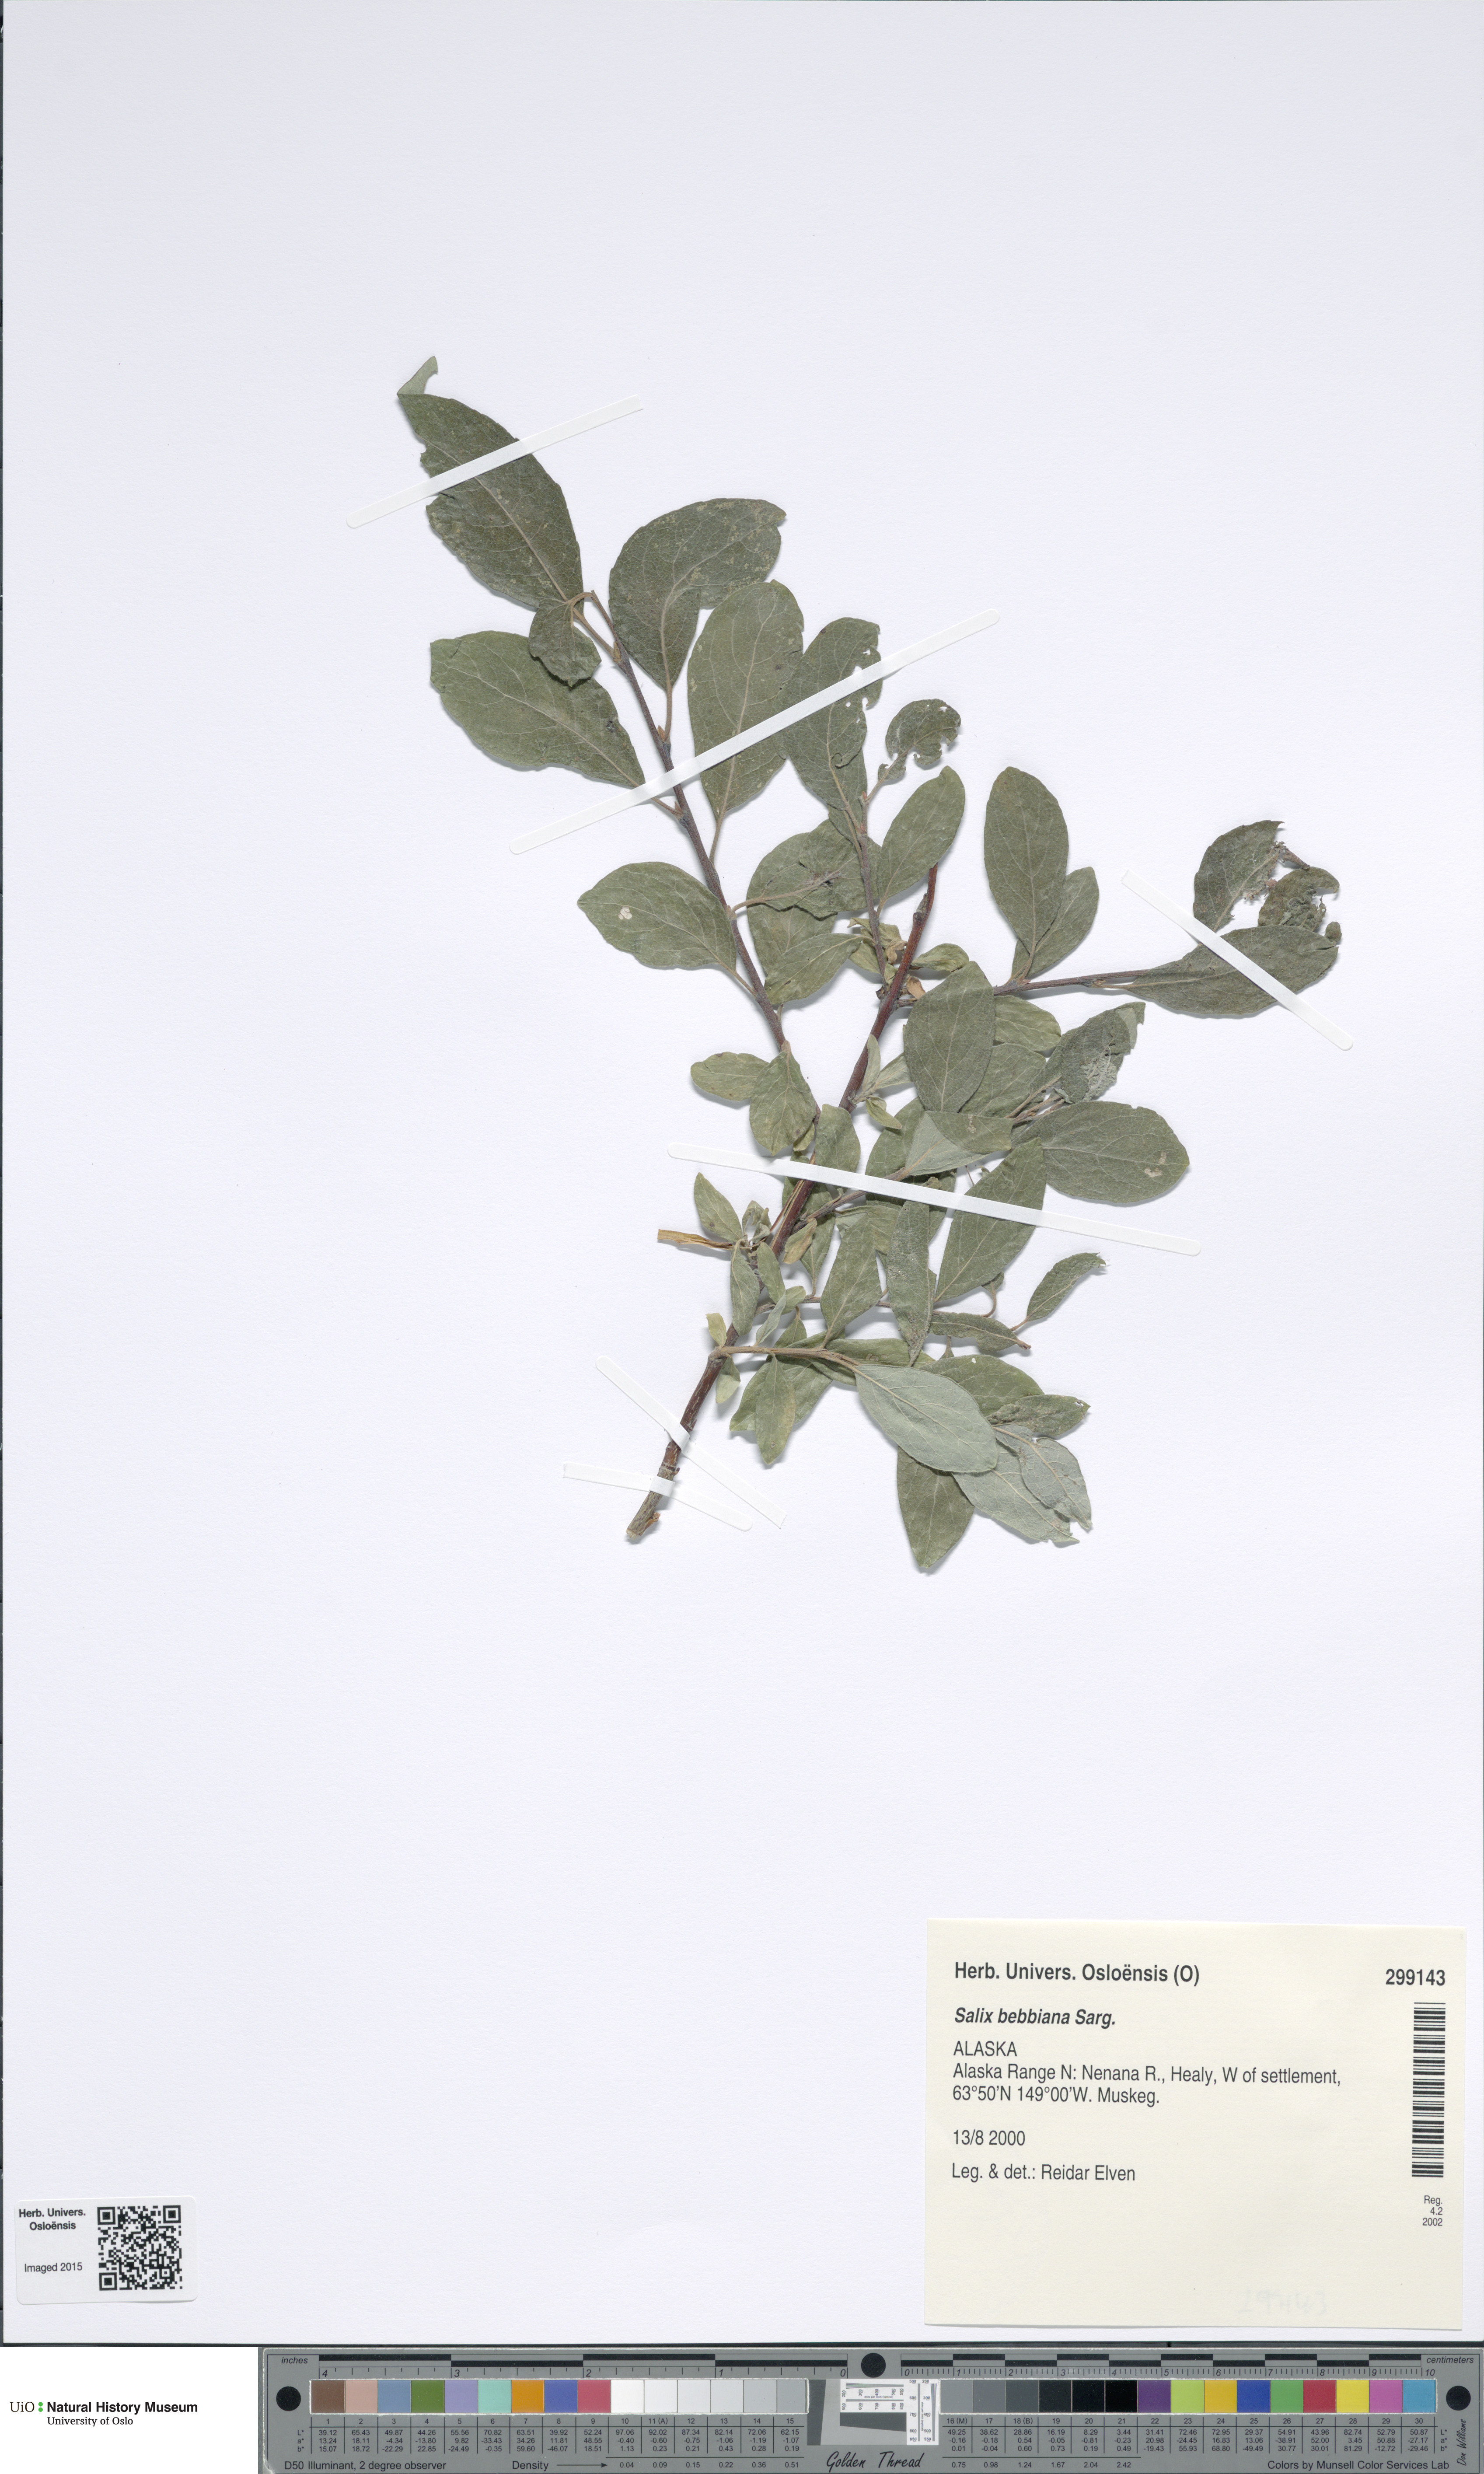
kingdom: Plantae
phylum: Tracheophyta
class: Magnoliopsida
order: Malpighiales
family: Salicaceae
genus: Salix
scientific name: Salix bebbiana
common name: Bebb's willow
